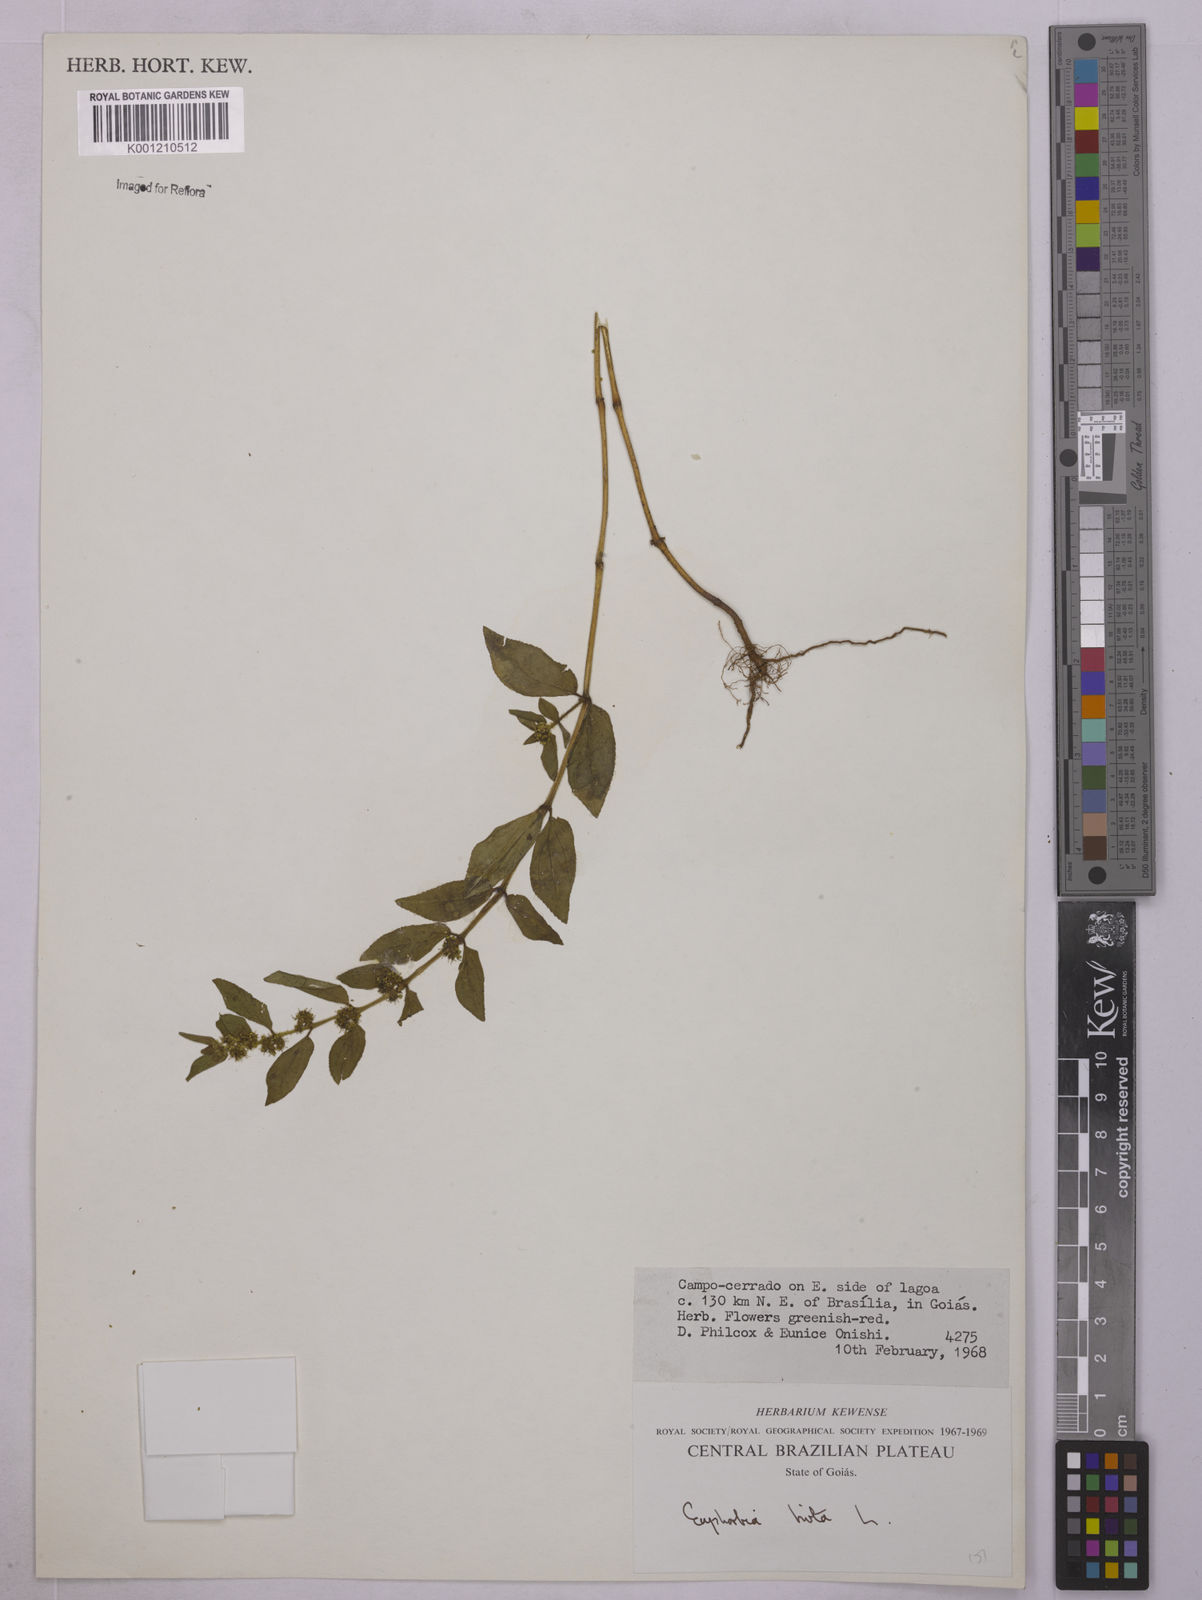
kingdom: Plantae
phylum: Tracheophyta
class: Magnoliopsida
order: Malpighiales
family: Euphorbiaceae
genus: Euphorbia
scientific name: Euphorbia hirta
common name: Pillpod sandmat
